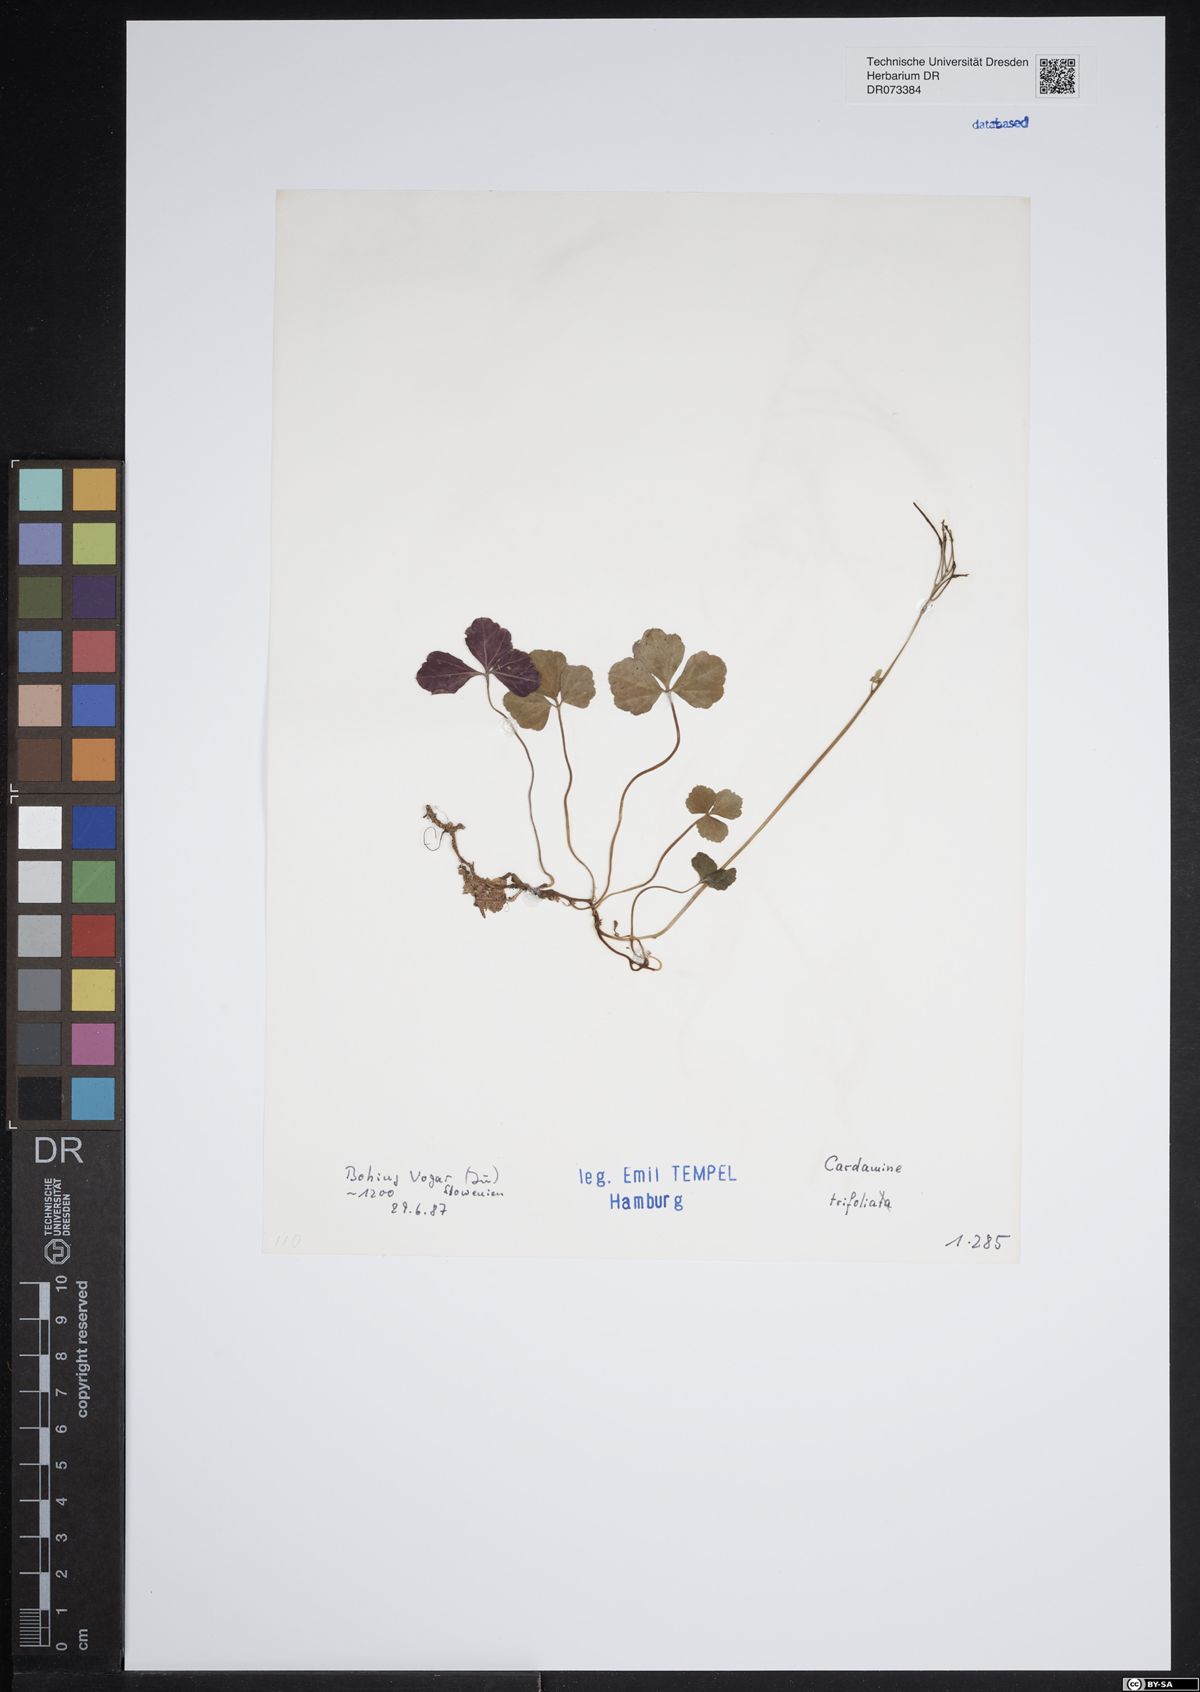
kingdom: Plantae
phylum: Tracheophyta
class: Magnoliopsida
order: Brassicales
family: Brassicaceae
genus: Cardamine
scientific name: Cardamine trifolia
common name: Trefoil cress
